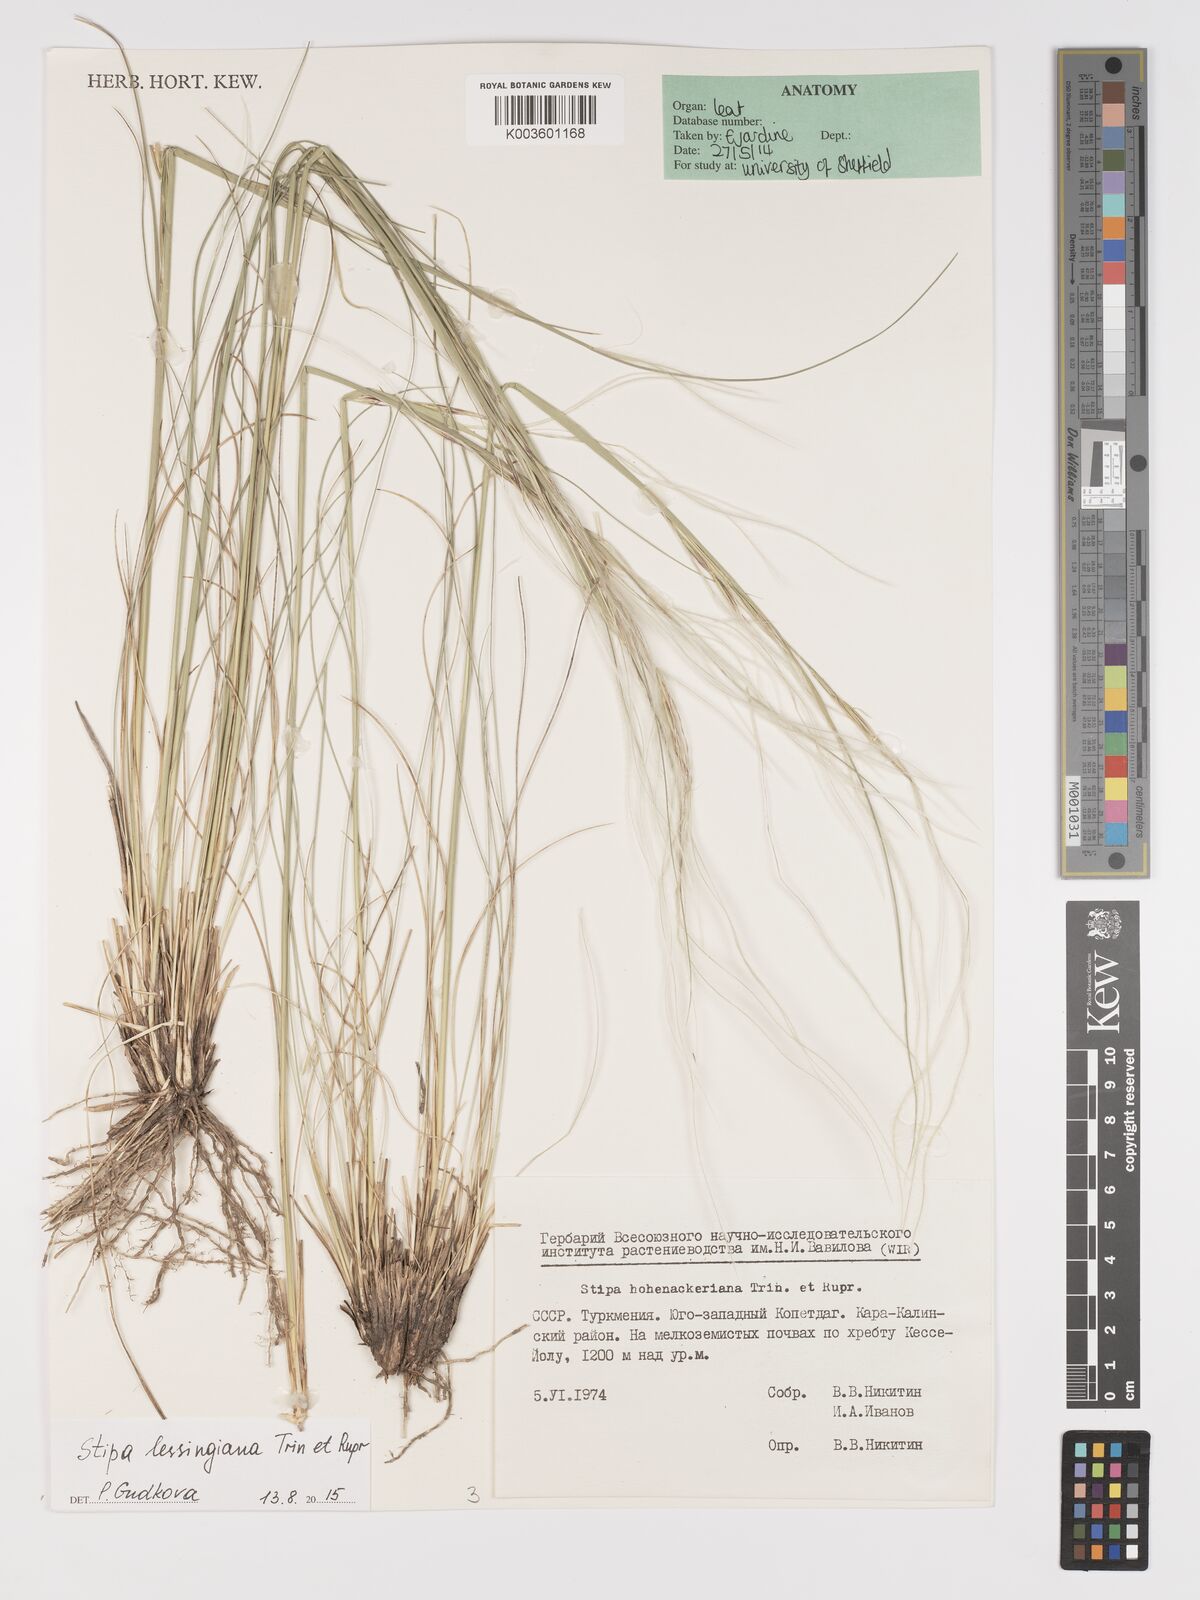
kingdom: Plantae
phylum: Tracheophyta
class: Liliopsida
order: Poales
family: Poaceae
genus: Stipa
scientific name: Stipa lessingiana
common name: Needle grass
